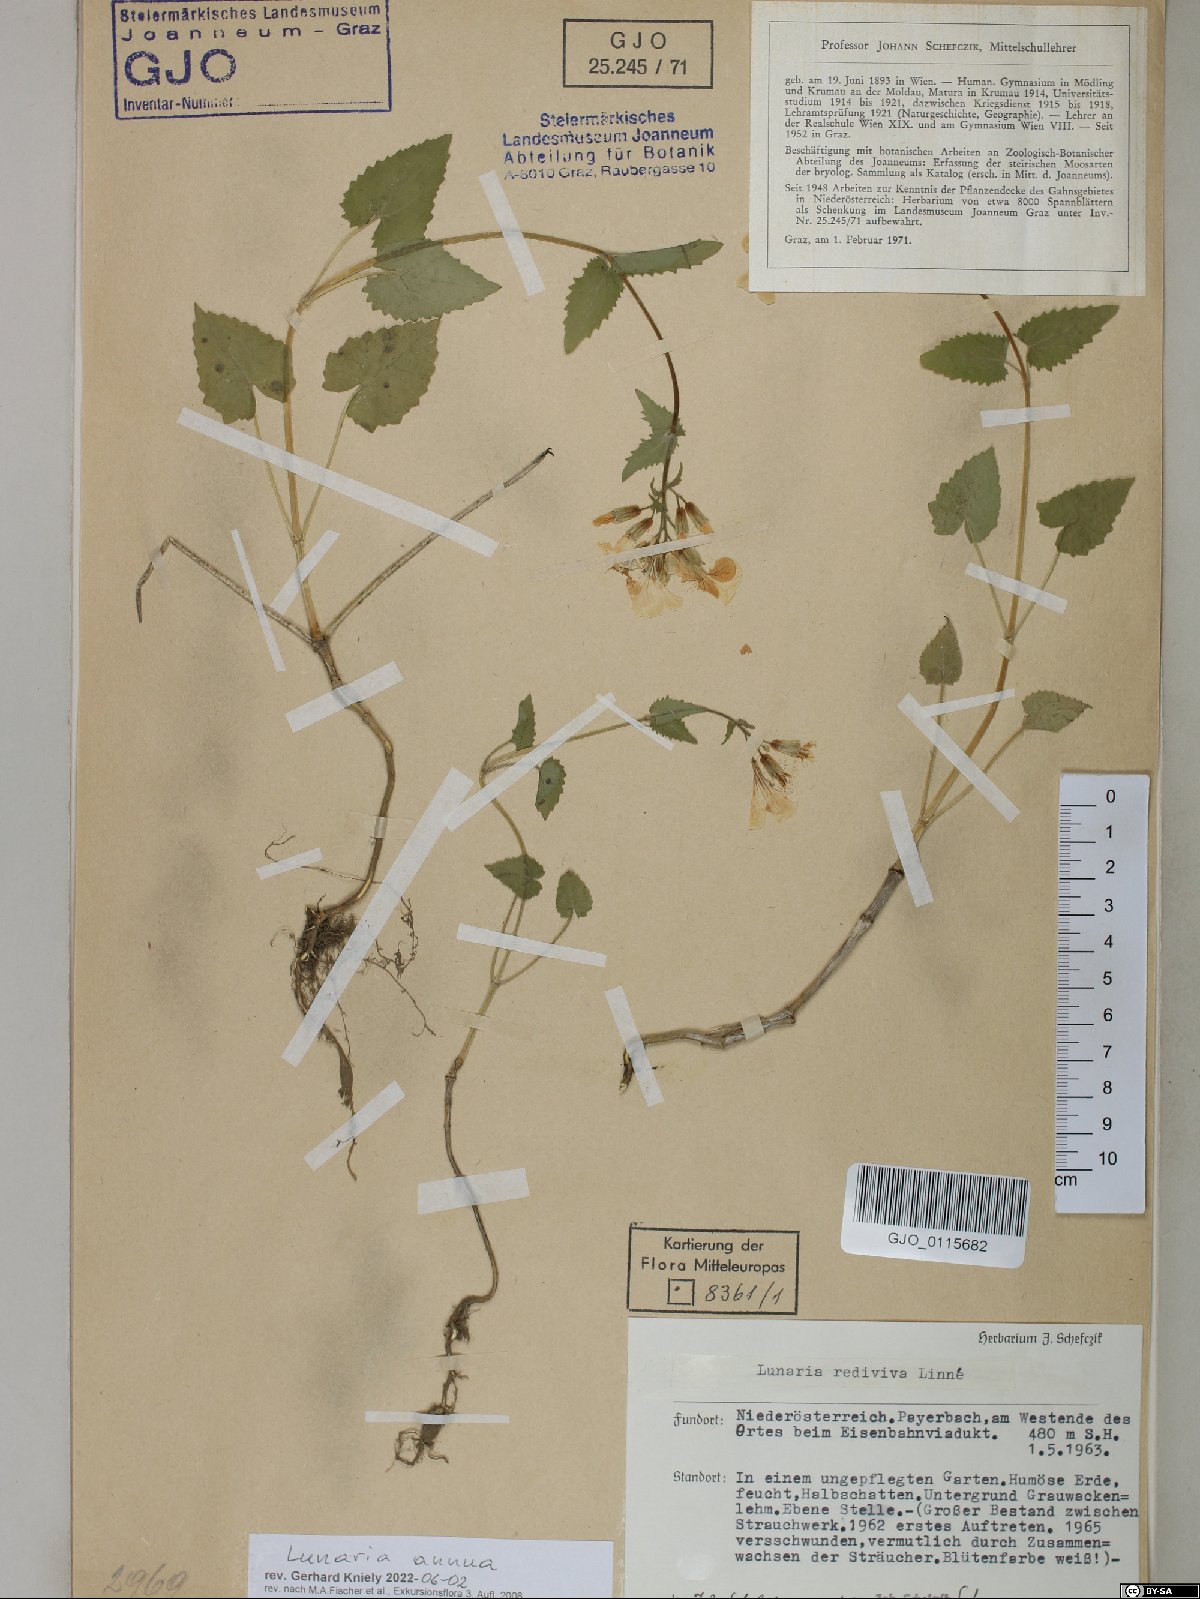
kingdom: Plantae
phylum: Tracheophyta
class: Magnoliopsida
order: Brassicales
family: Brassicaceae
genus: Lunaria
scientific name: Lunaria annua
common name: Honesty
